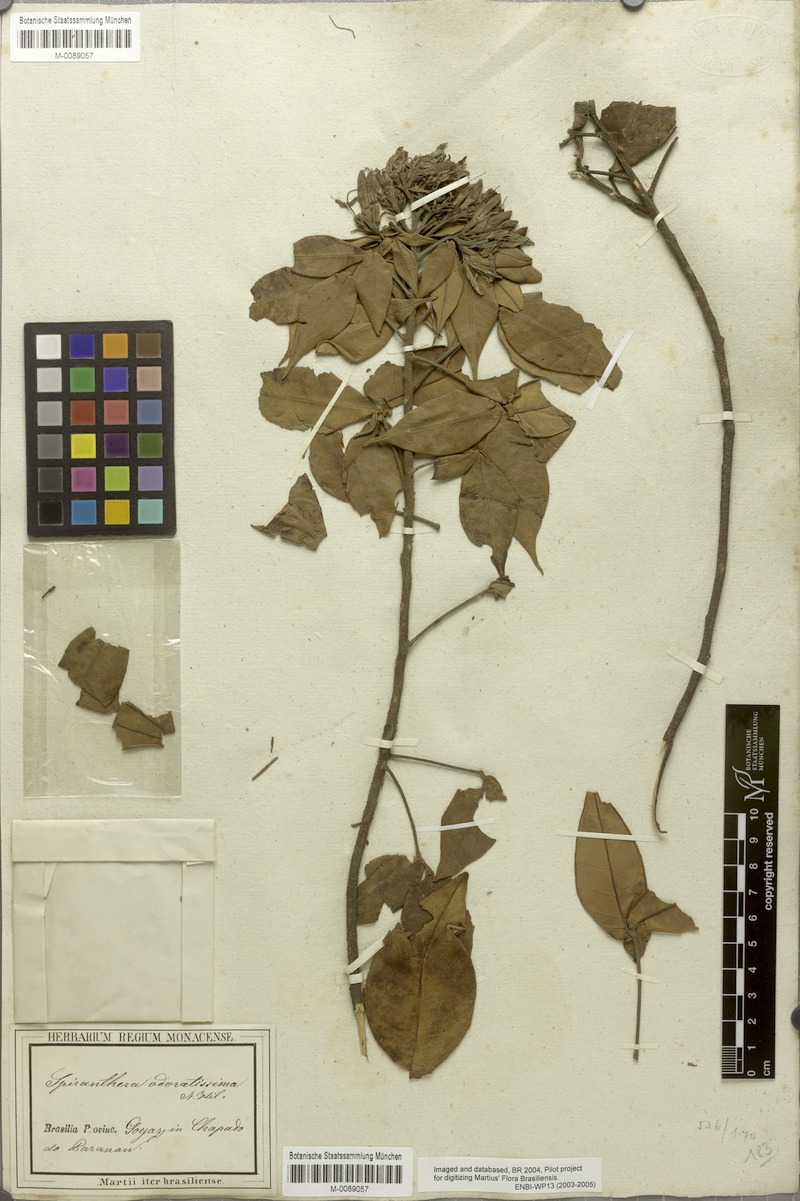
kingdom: Plantae
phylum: Tracheophyta
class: Magnoliopsida
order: Sapindales
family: Rutaceae
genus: Spiranthera
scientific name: Spiranthera odoratissima
